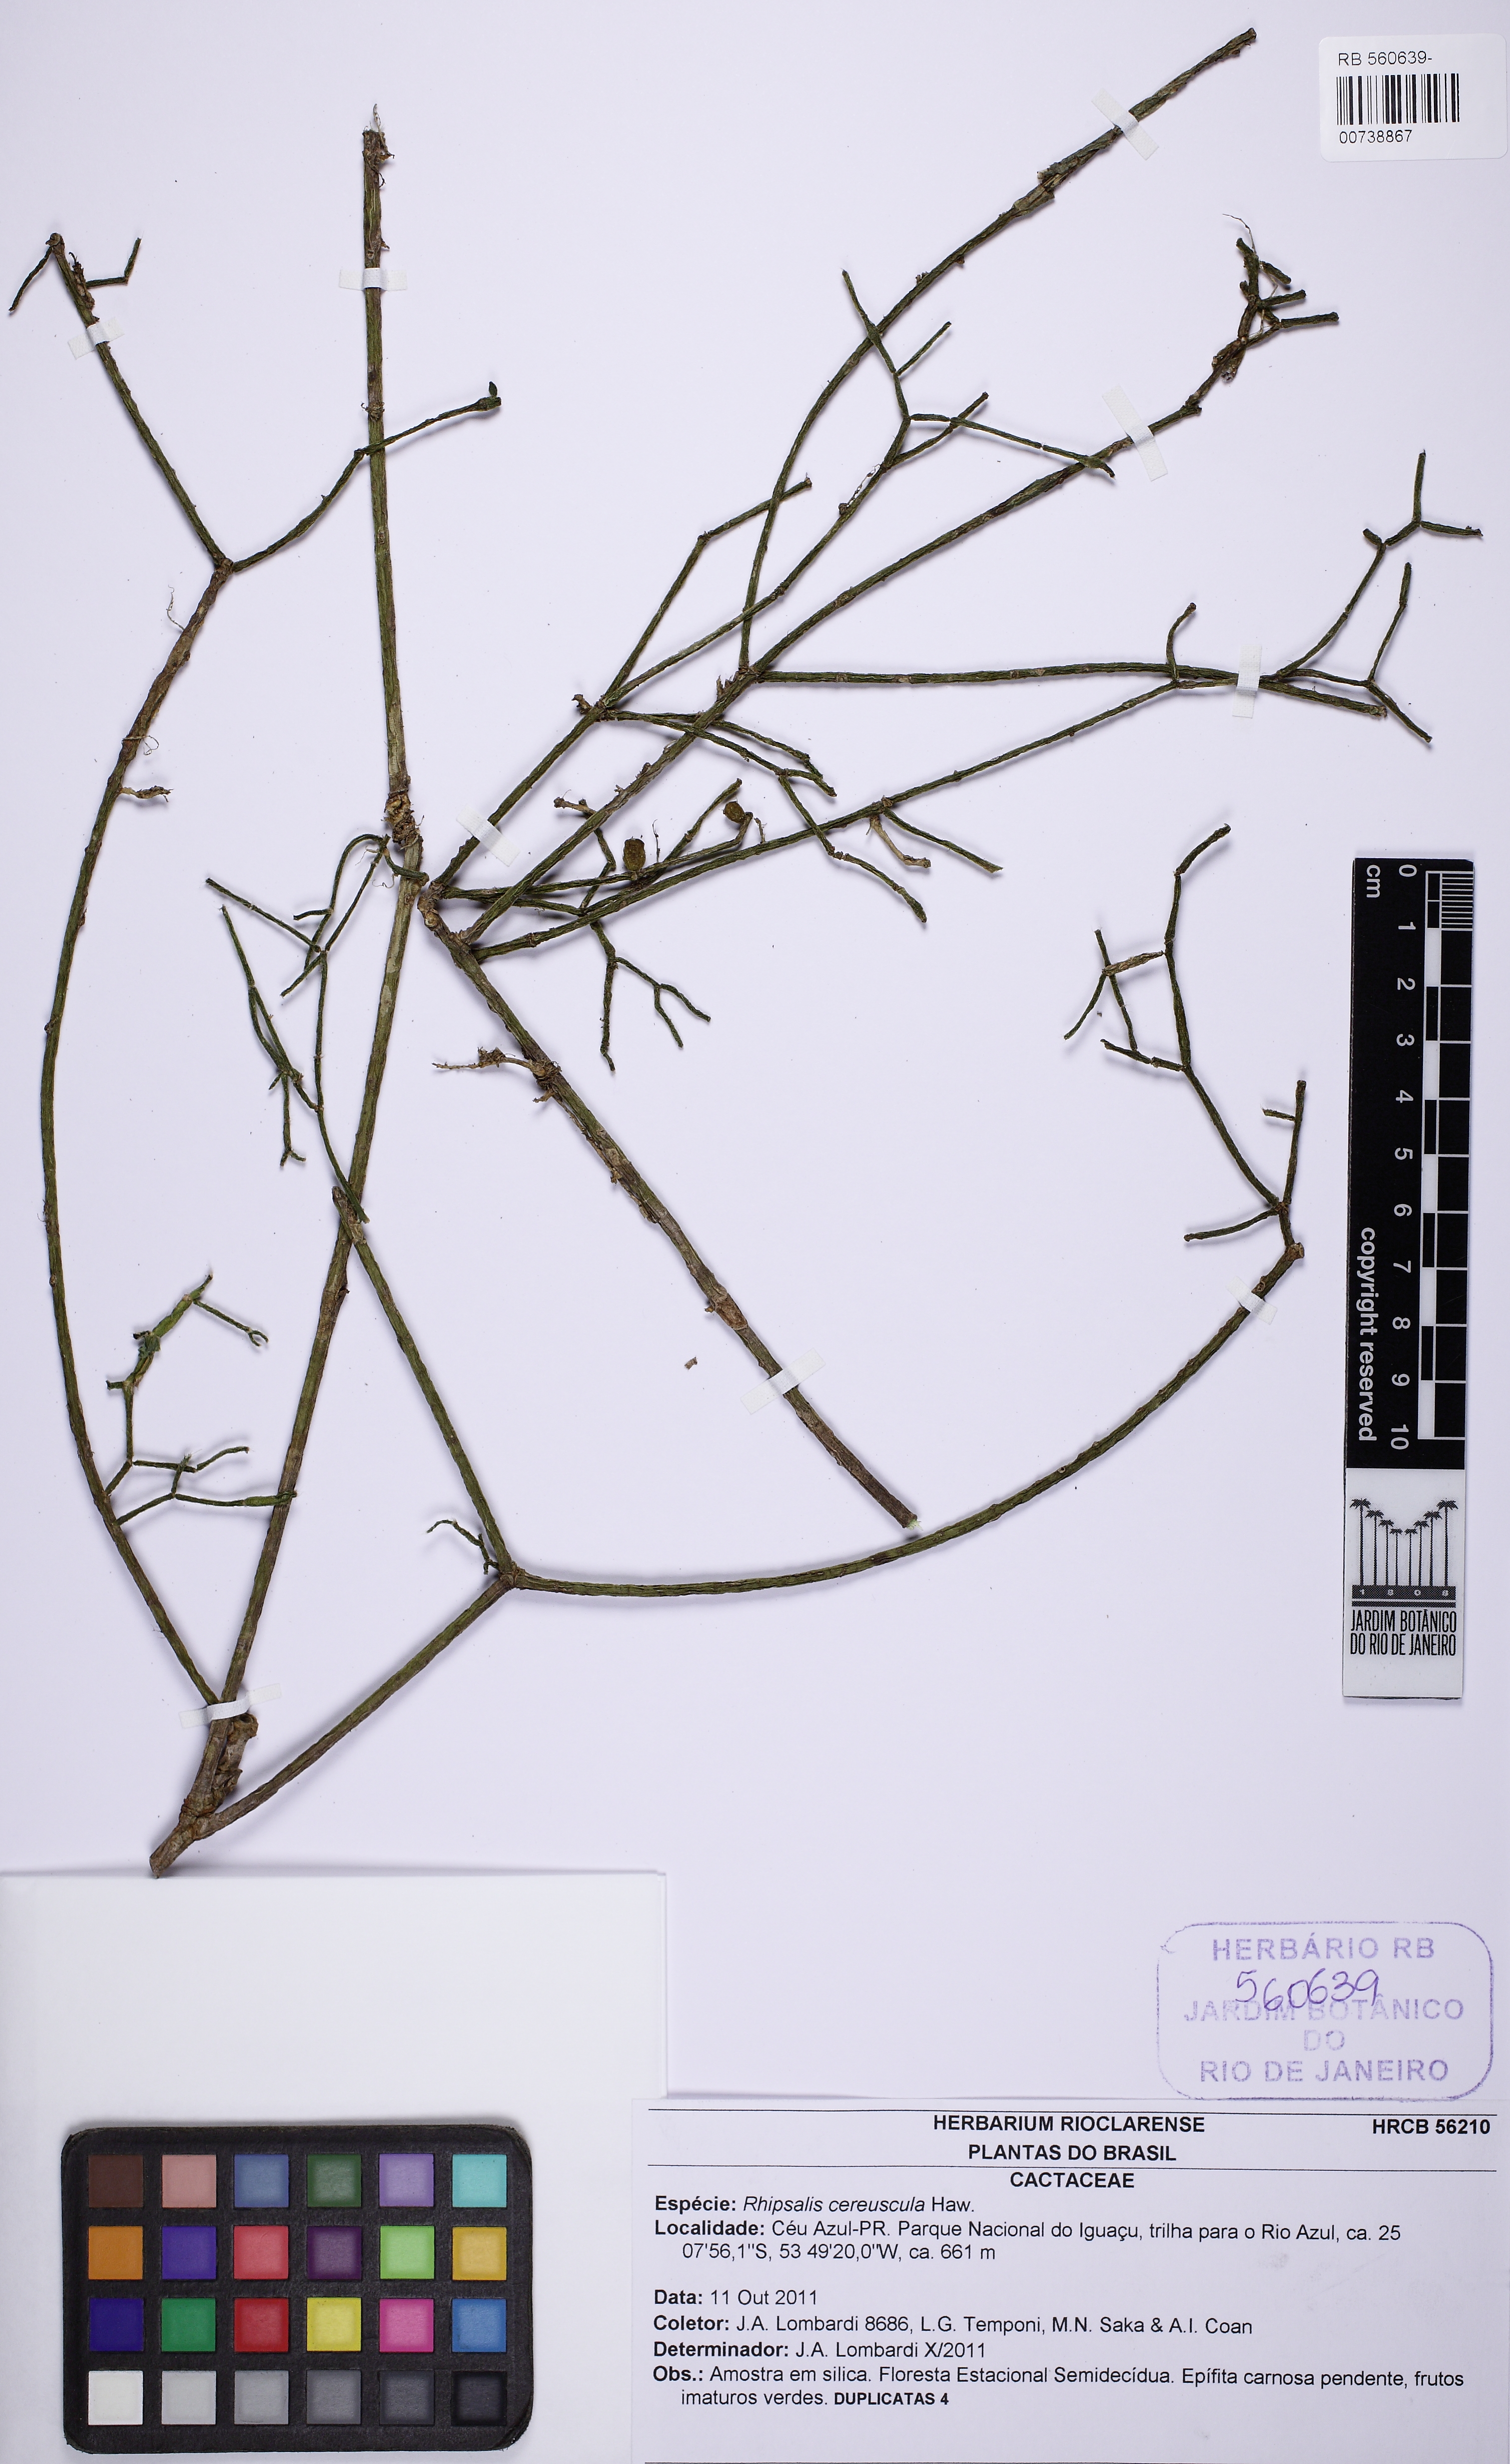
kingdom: Plantae
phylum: Tracheophyta
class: Magnoliopsida
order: Caryophyllales
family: Cactaceae
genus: Rhipsalis
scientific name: Rhipsalis cereuscula
